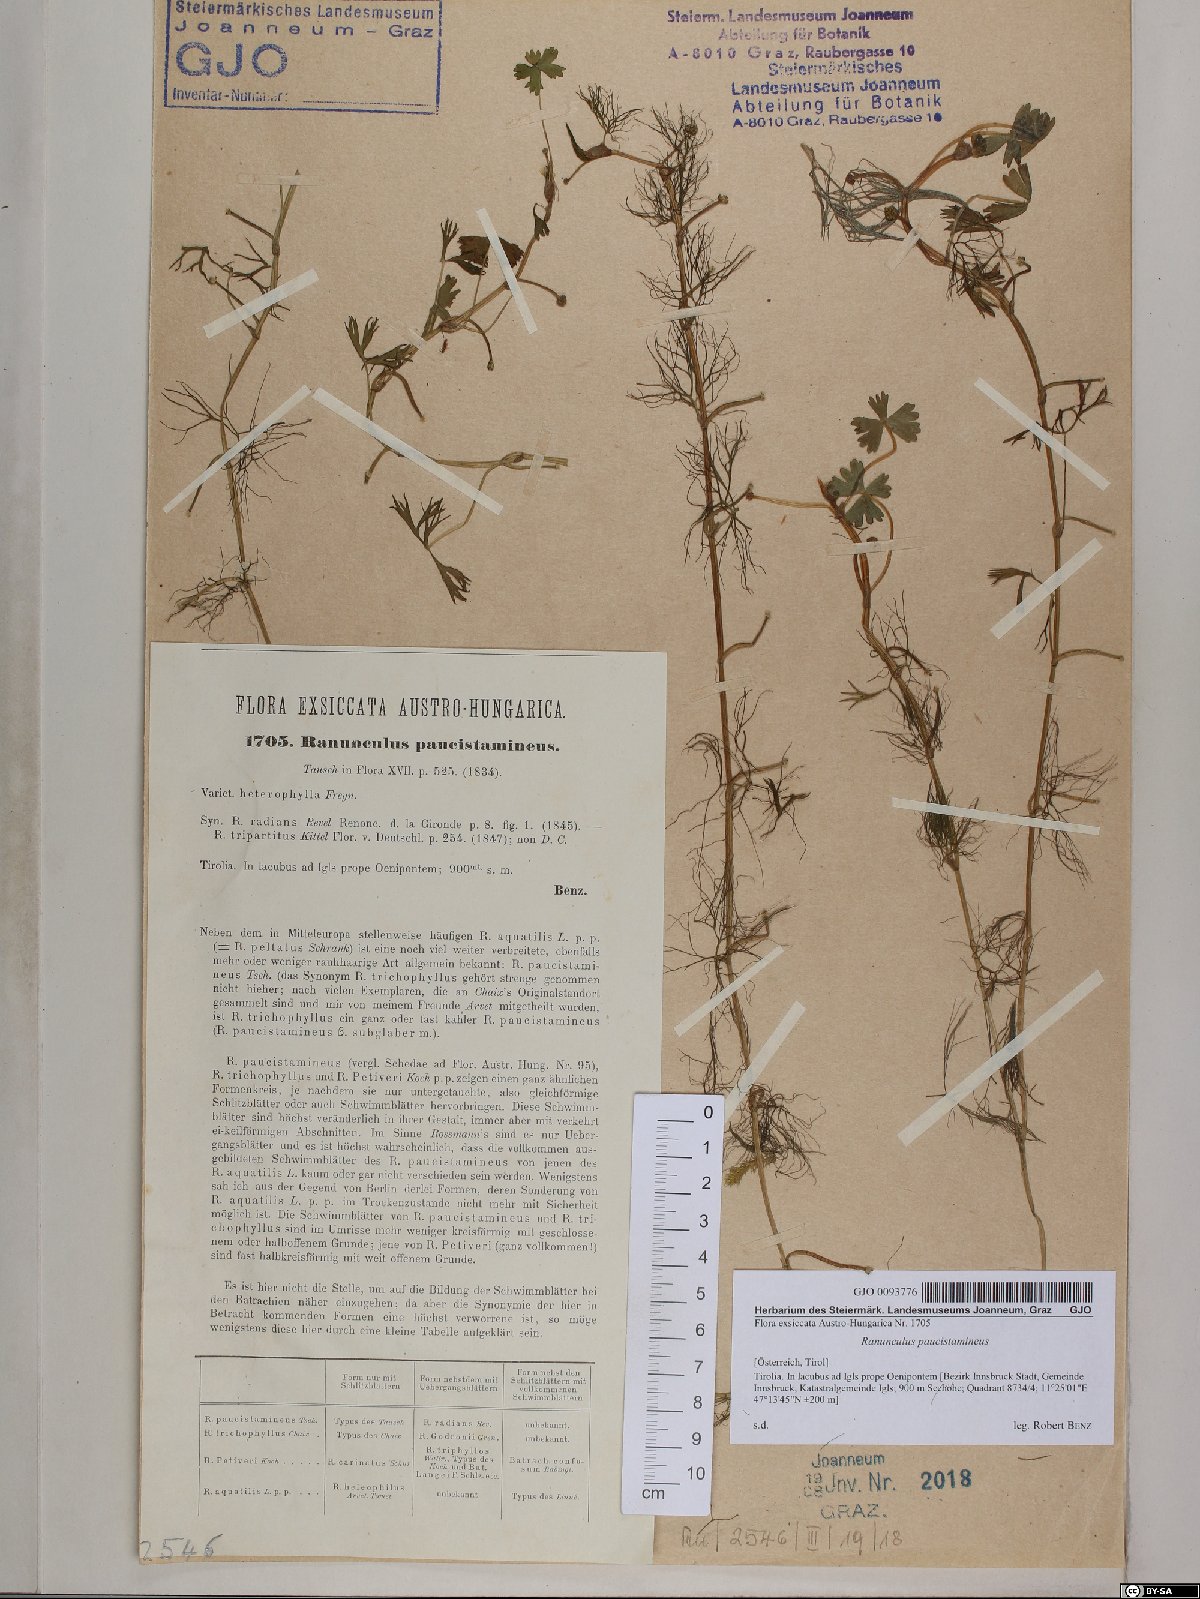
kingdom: Plantae
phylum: Tracheophyta
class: Magnoliopsida
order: Ranunculales
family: Ranunculaceae
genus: Ranunculus
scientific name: Ranunculus
